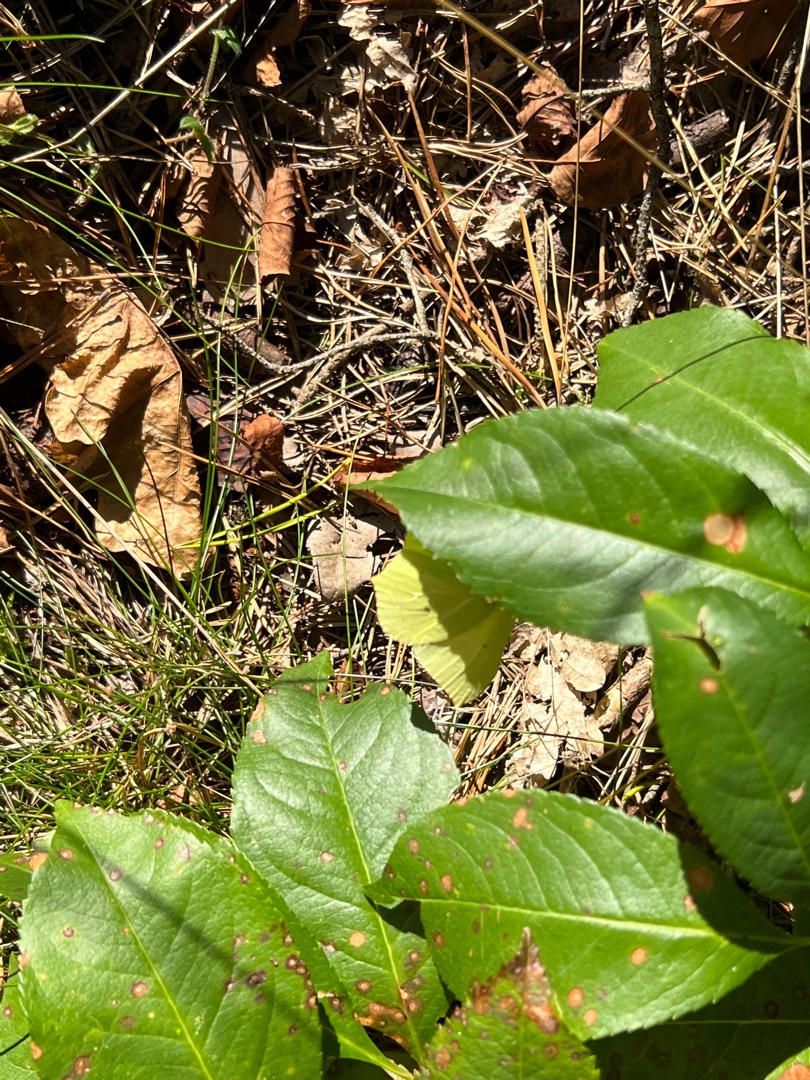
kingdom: Animalia
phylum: Arthropoda
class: Insecta
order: Lepidoptera
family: Pieridae
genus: Gonepteryx
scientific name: Gonepteryx rhamni
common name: Citronsommerfugl
